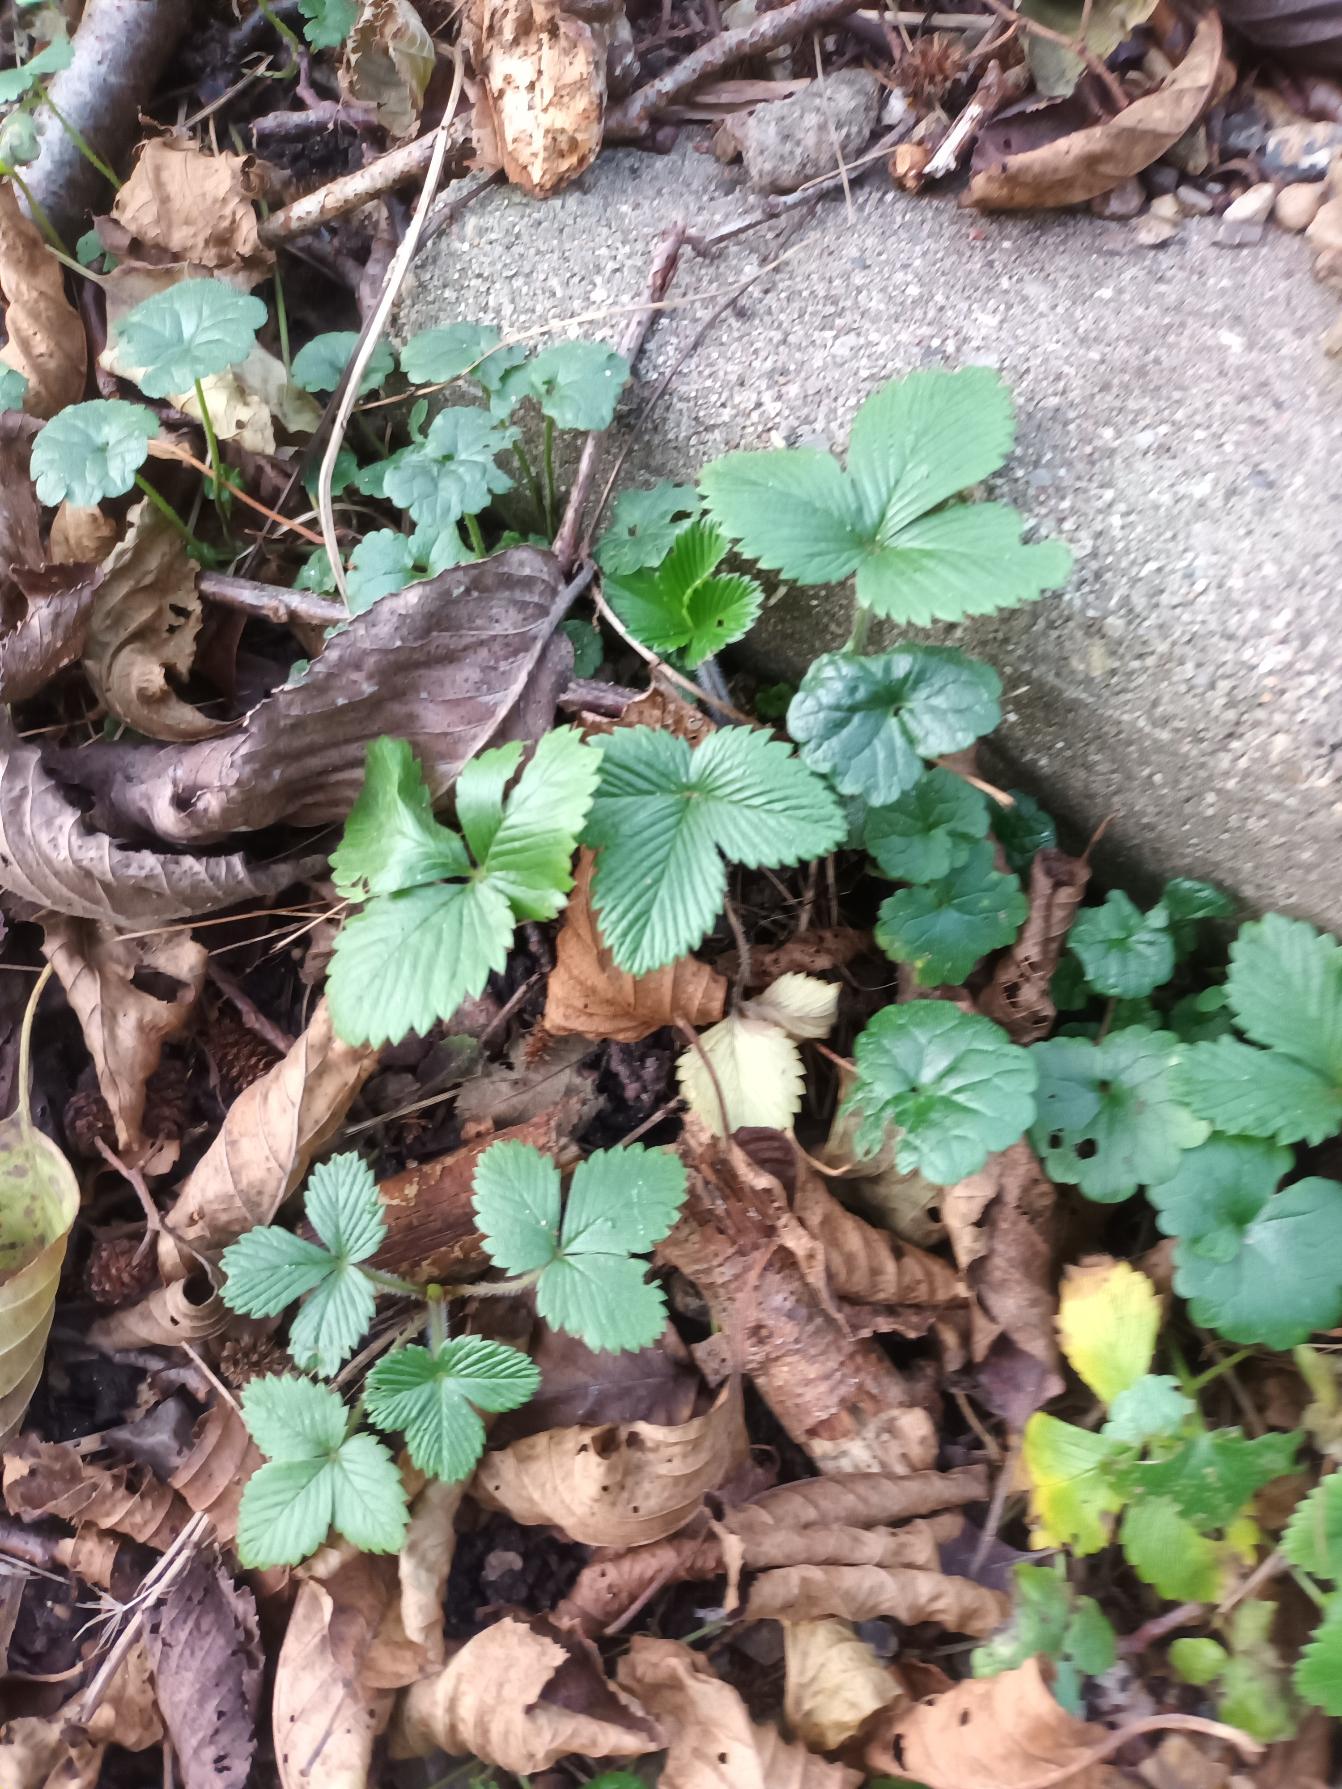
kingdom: Plantae
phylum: Tracheophyta
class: Magnoliopsida
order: Rosales
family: Rosaceae
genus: Fragaria
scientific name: Fragaria vesca
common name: Skov-jordbær
